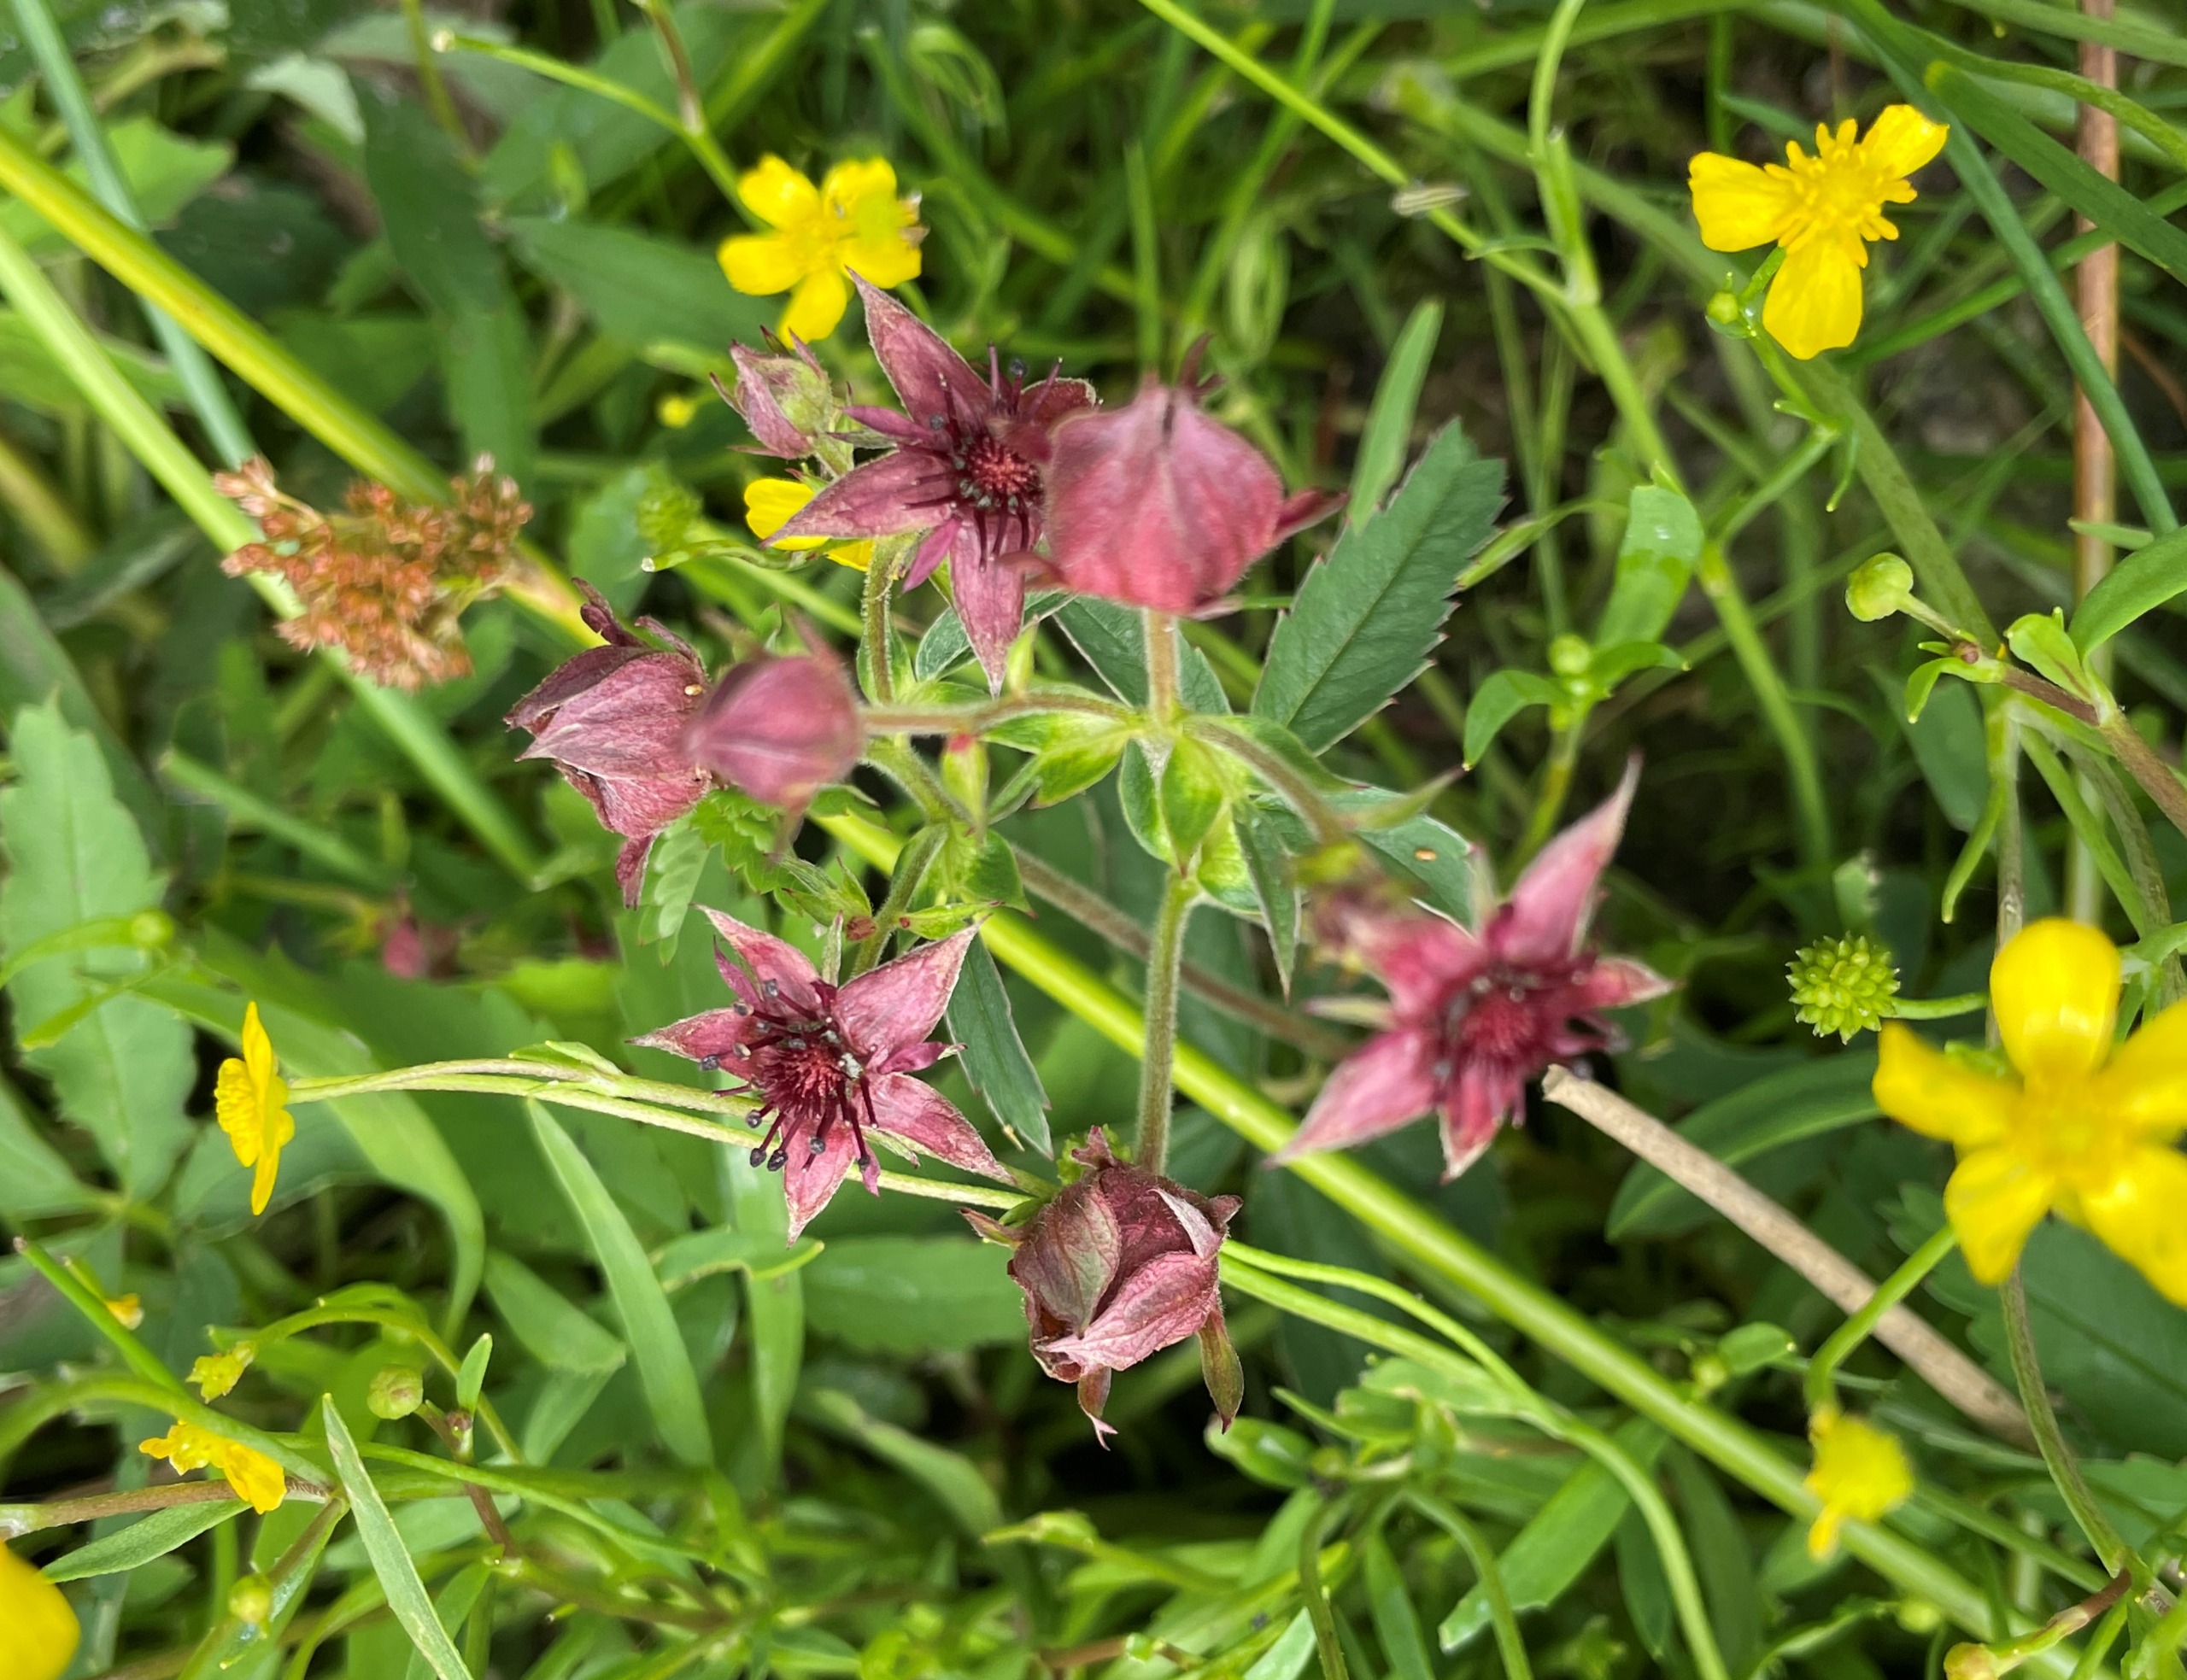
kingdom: Plantae
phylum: Tracheophyta
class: Magnoliopsida
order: Rosales
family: Rosaceae
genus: Comarum
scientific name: Comarum palustre
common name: Kragefod
